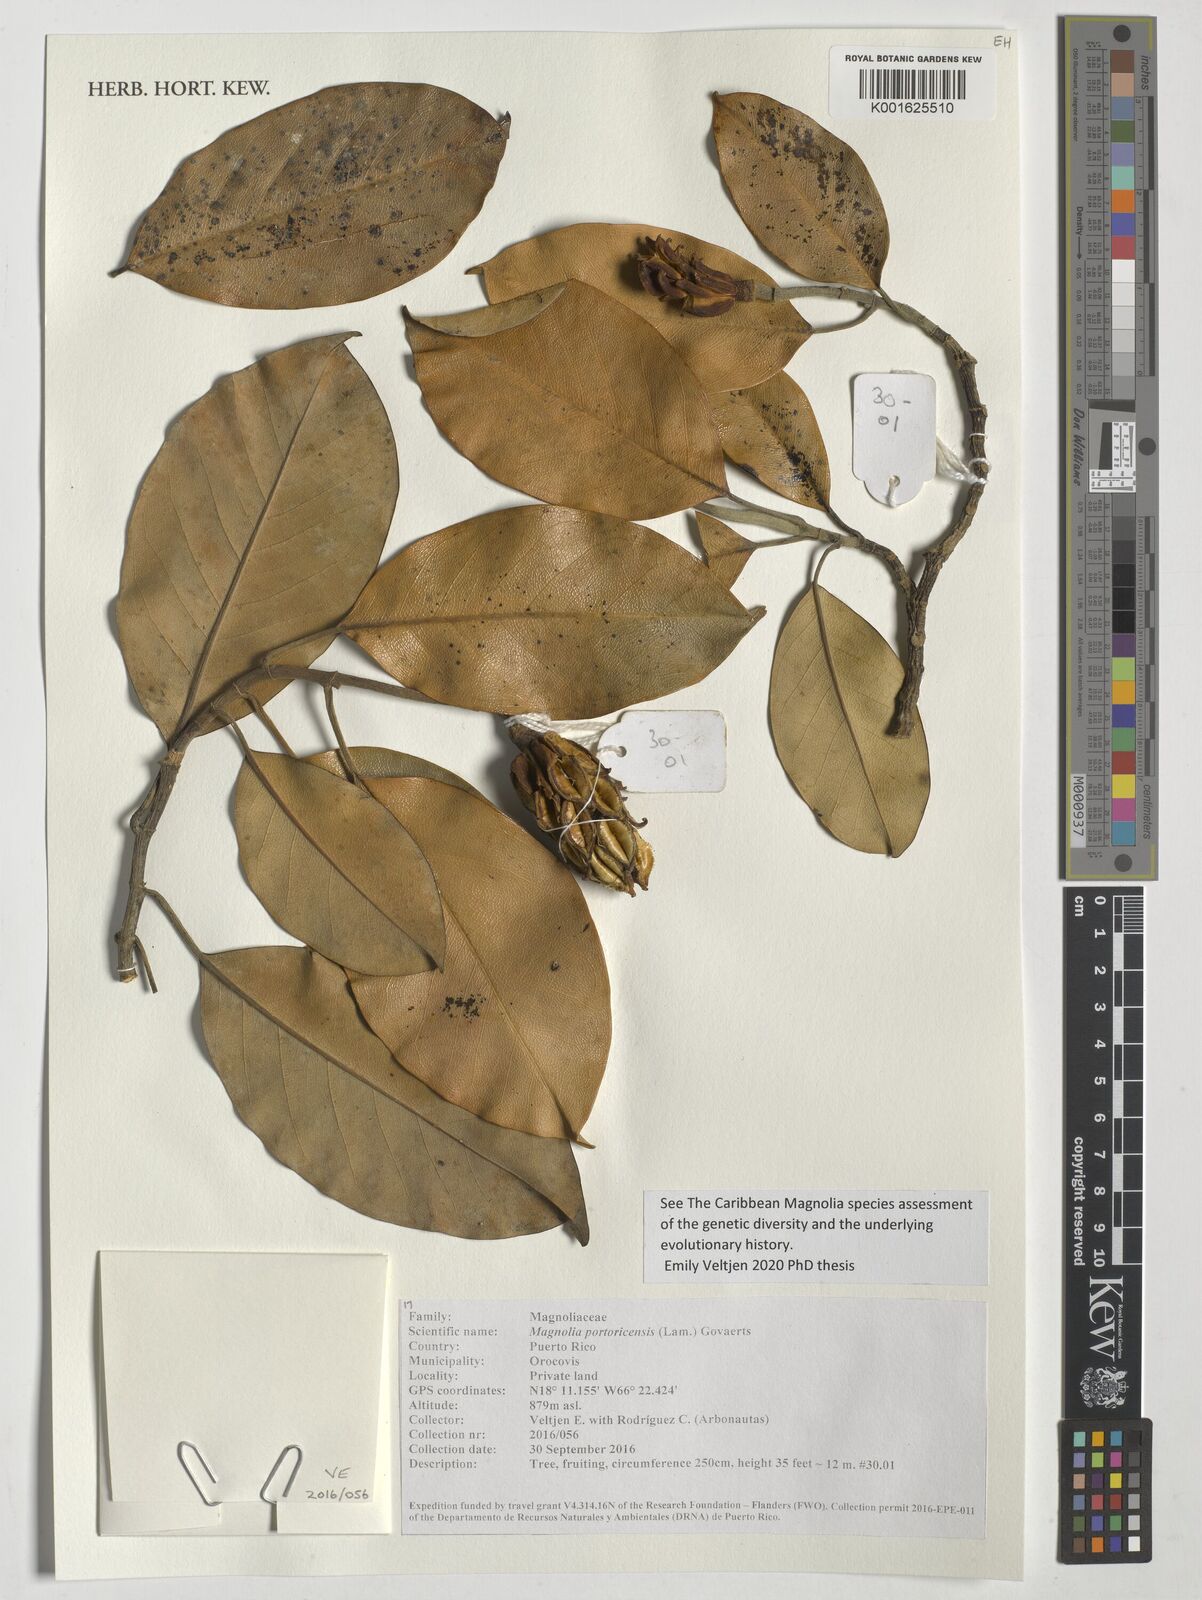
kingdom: Plantae
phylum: Tracheophyta
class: Magnoliopsida
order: Magnoliales
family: Magnoliaceae
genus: Magnolia
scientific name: Magnolia portoricensis
